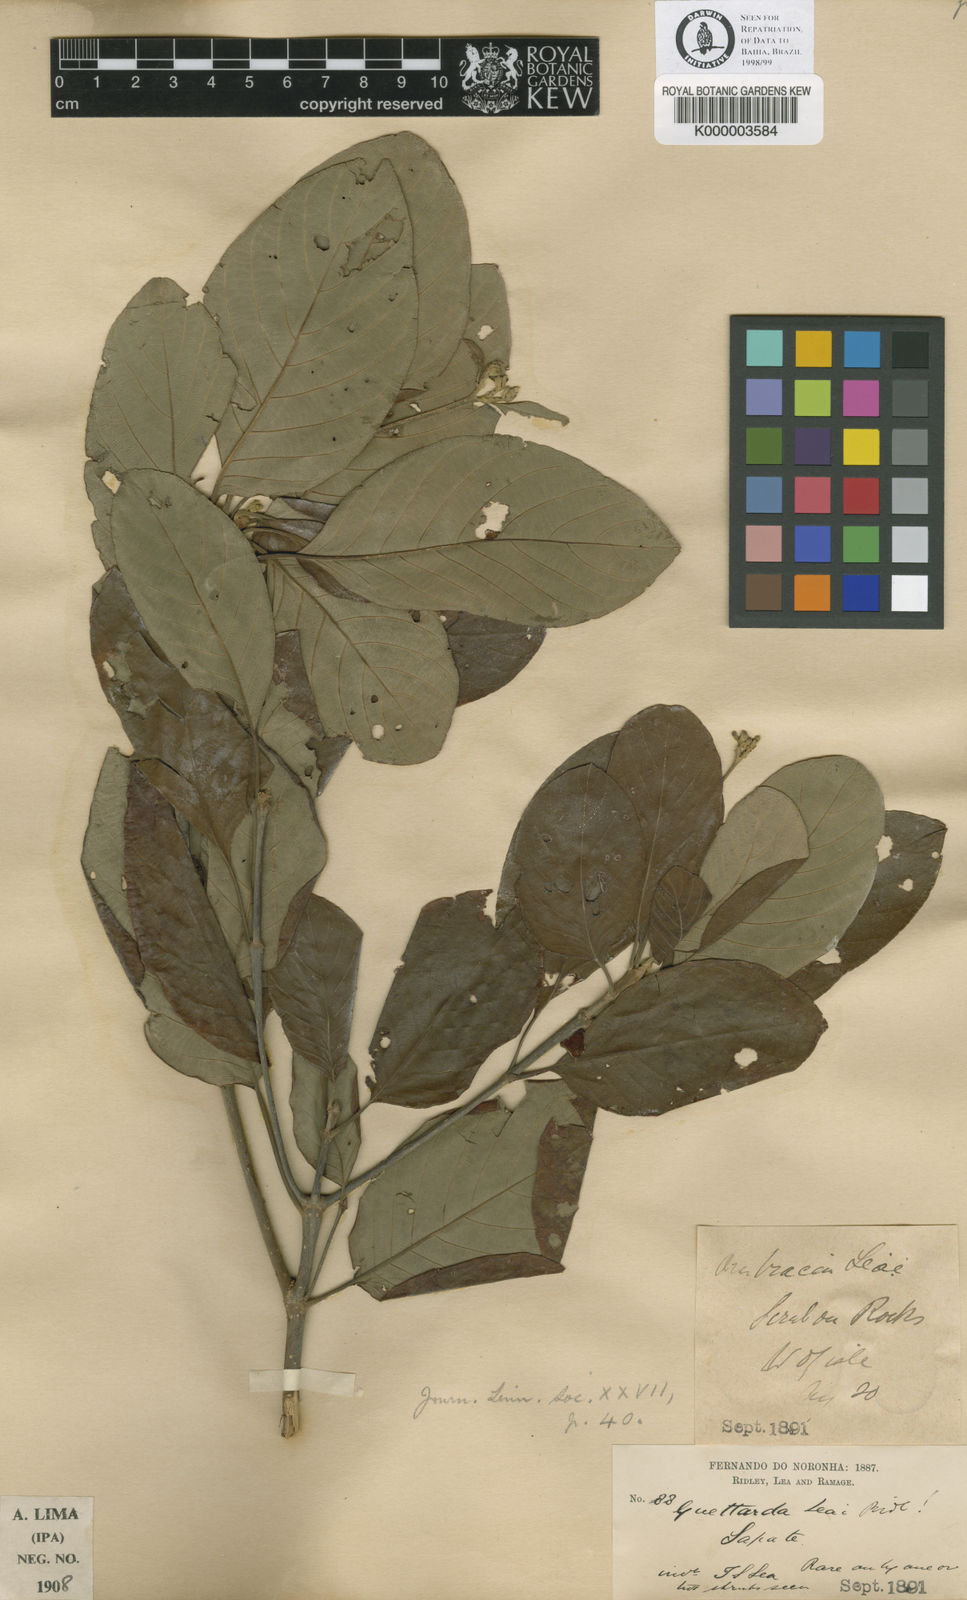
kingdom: Plantae
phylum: Tracheophyta
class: Magnoliopsida
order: Gentianales
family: Rubiaceae
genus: Guettarda
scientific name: Guettarda leai
